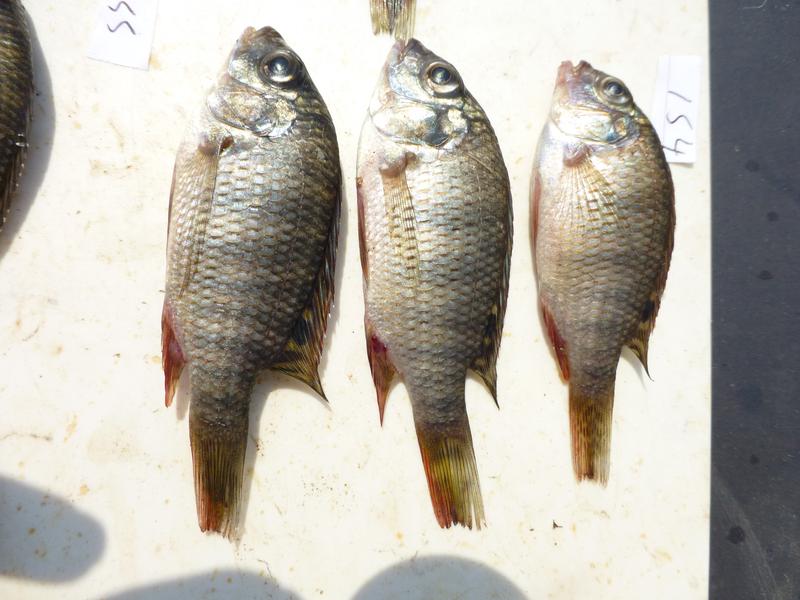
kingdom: Animalia
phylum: Chordata
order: Perciformes
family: Cichlidae
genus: Coptodon
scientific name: Coptodon rendalli
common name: Redbreast tilapia
